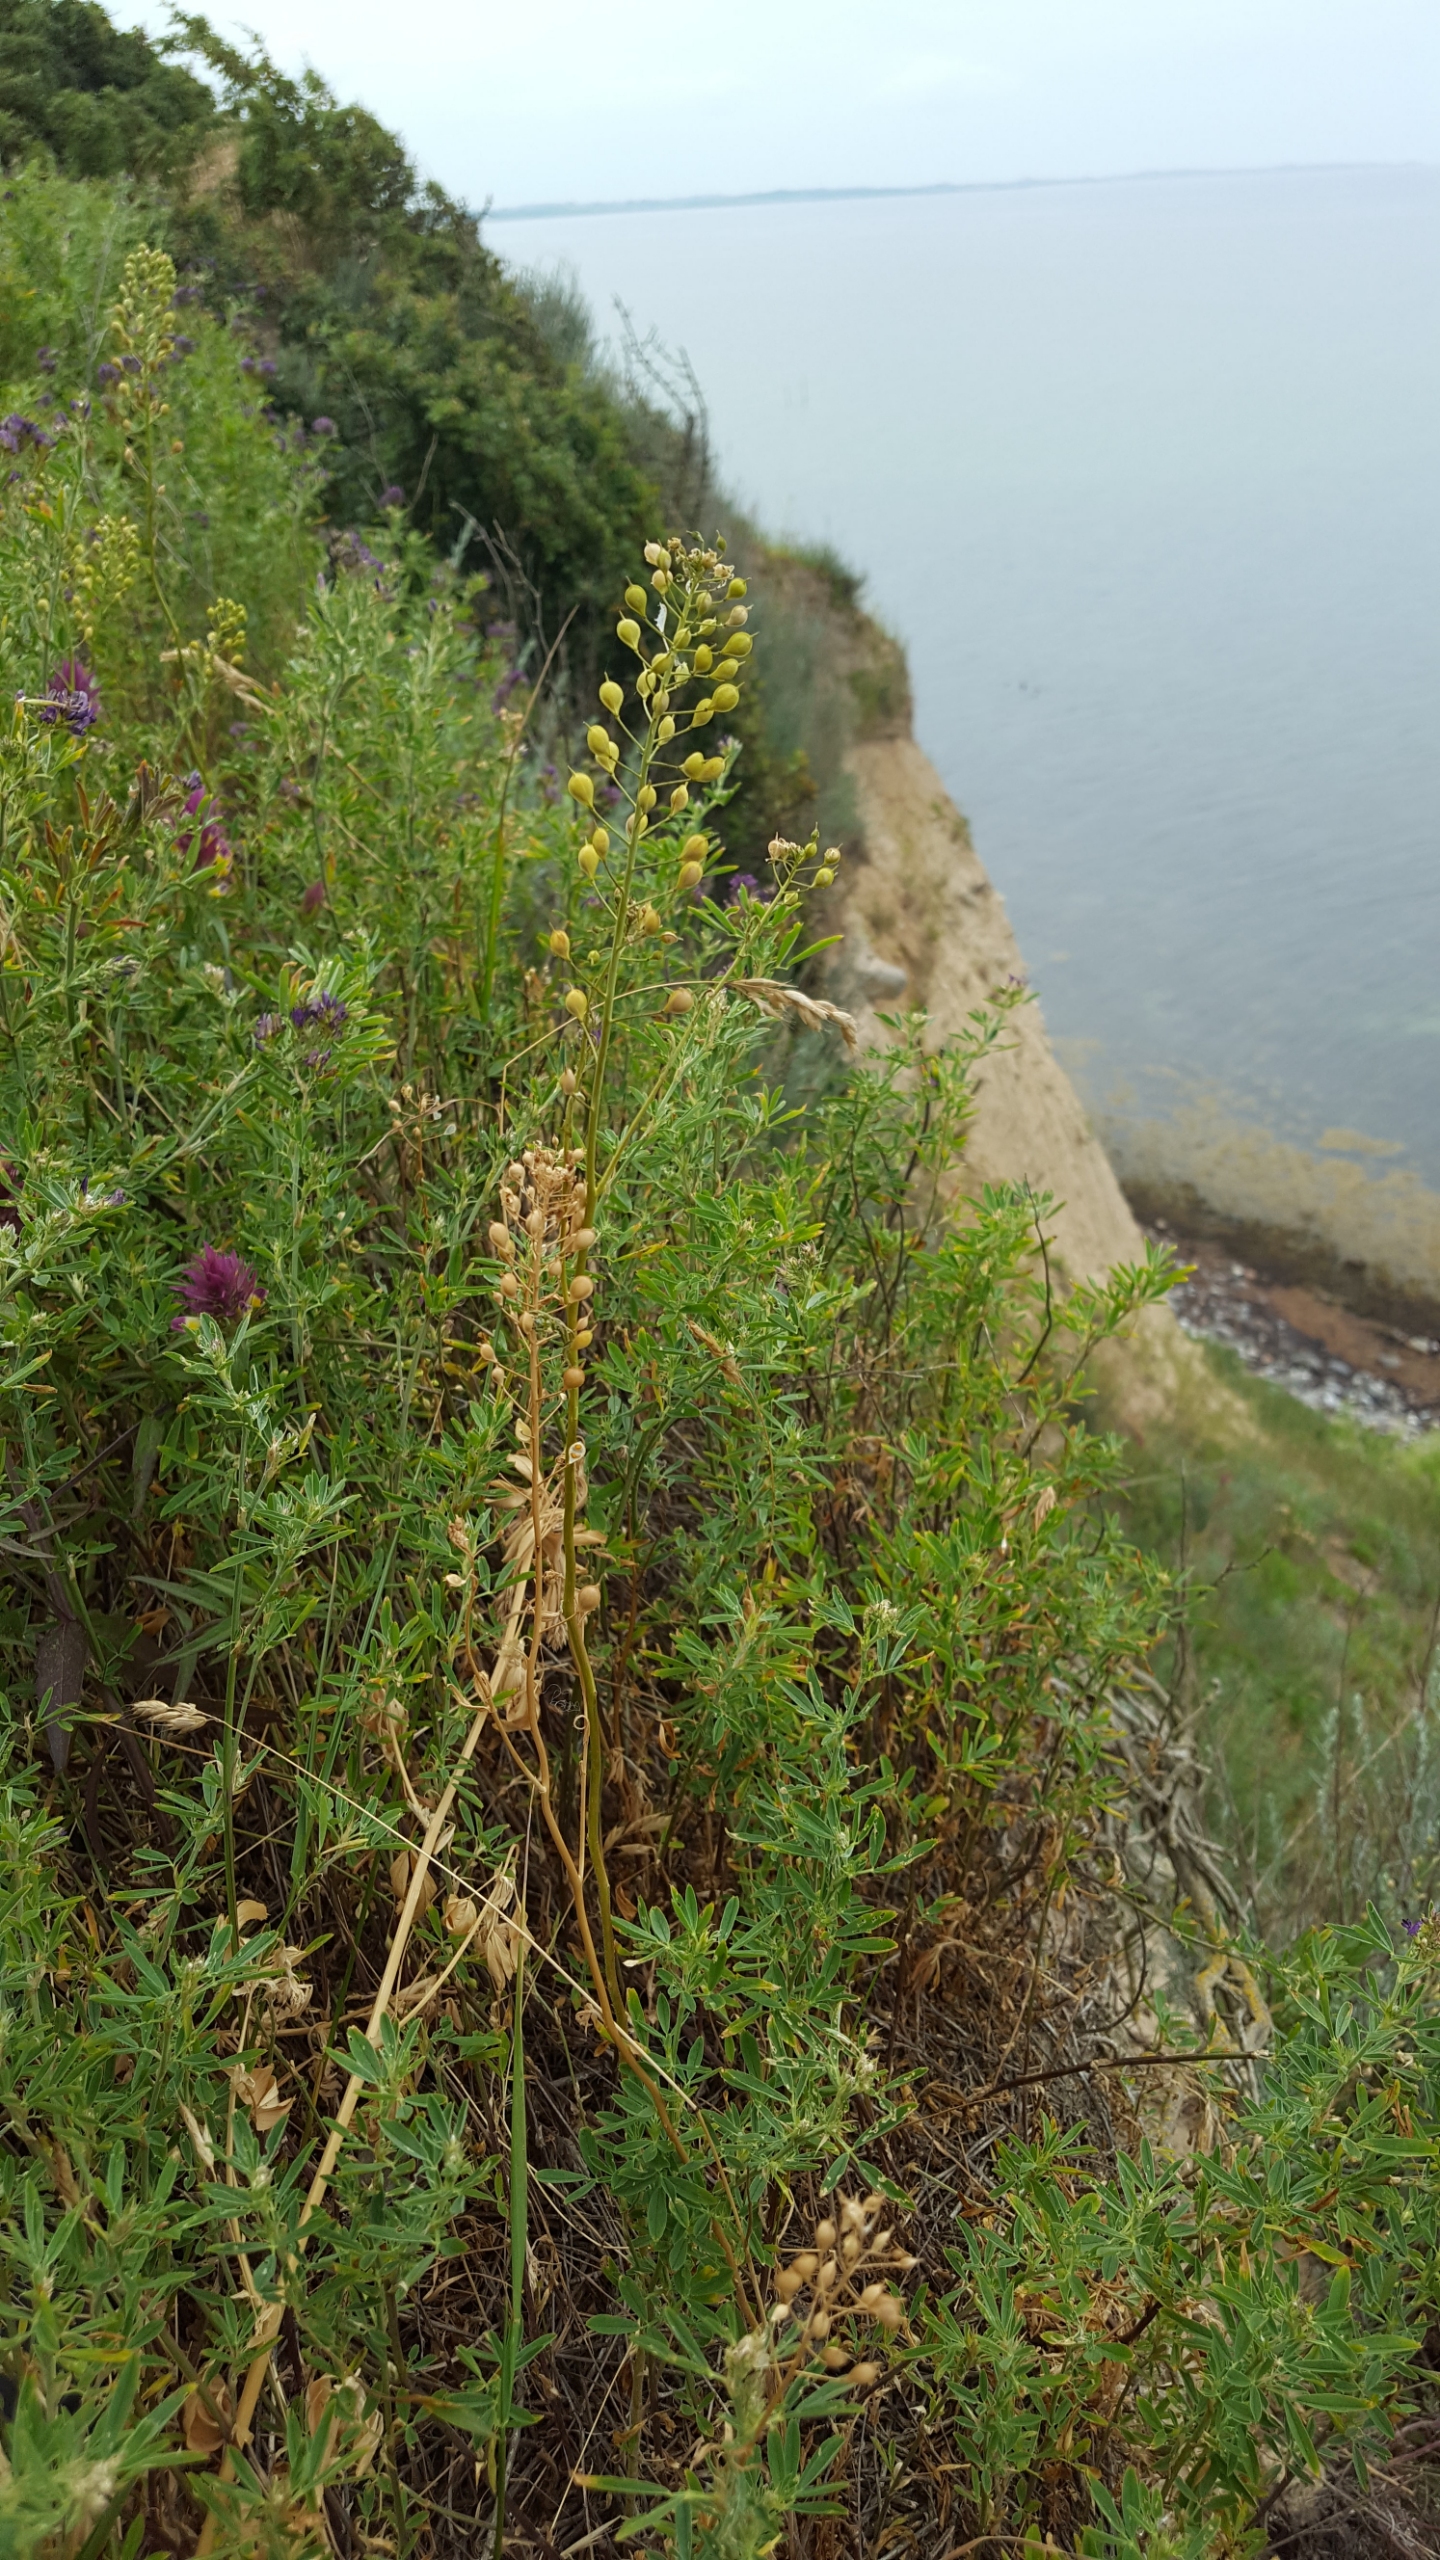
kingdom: Plantae
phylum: Tracheophyta
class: Magnoliopsida
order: Brassicales
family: Brassicaceae
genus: Camelina
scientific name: Camelina microcarpa
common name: Småskulpet dodder
